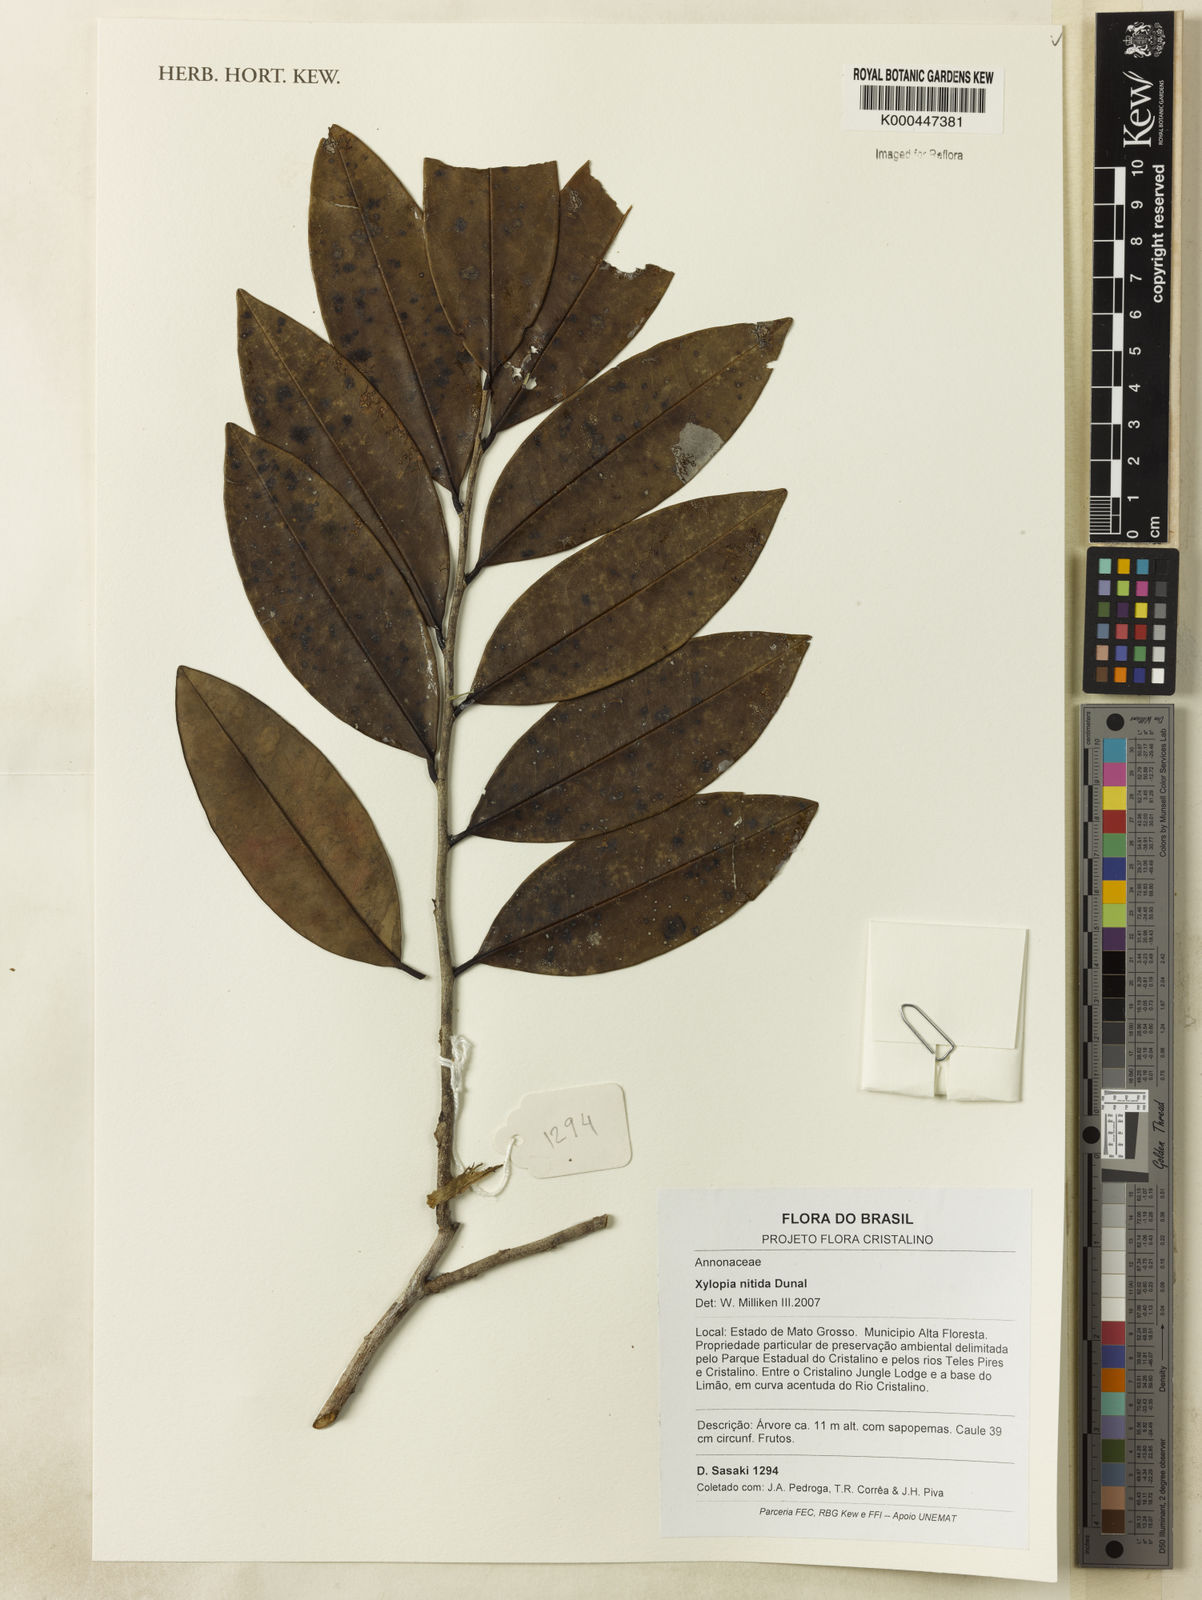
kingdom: Plantae
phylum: Tracheophyta
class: Magnoliopsida
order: Magnoliales
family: Annonaceae
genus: Xylopia
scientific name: Xylopia nitida
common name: White kuyama
